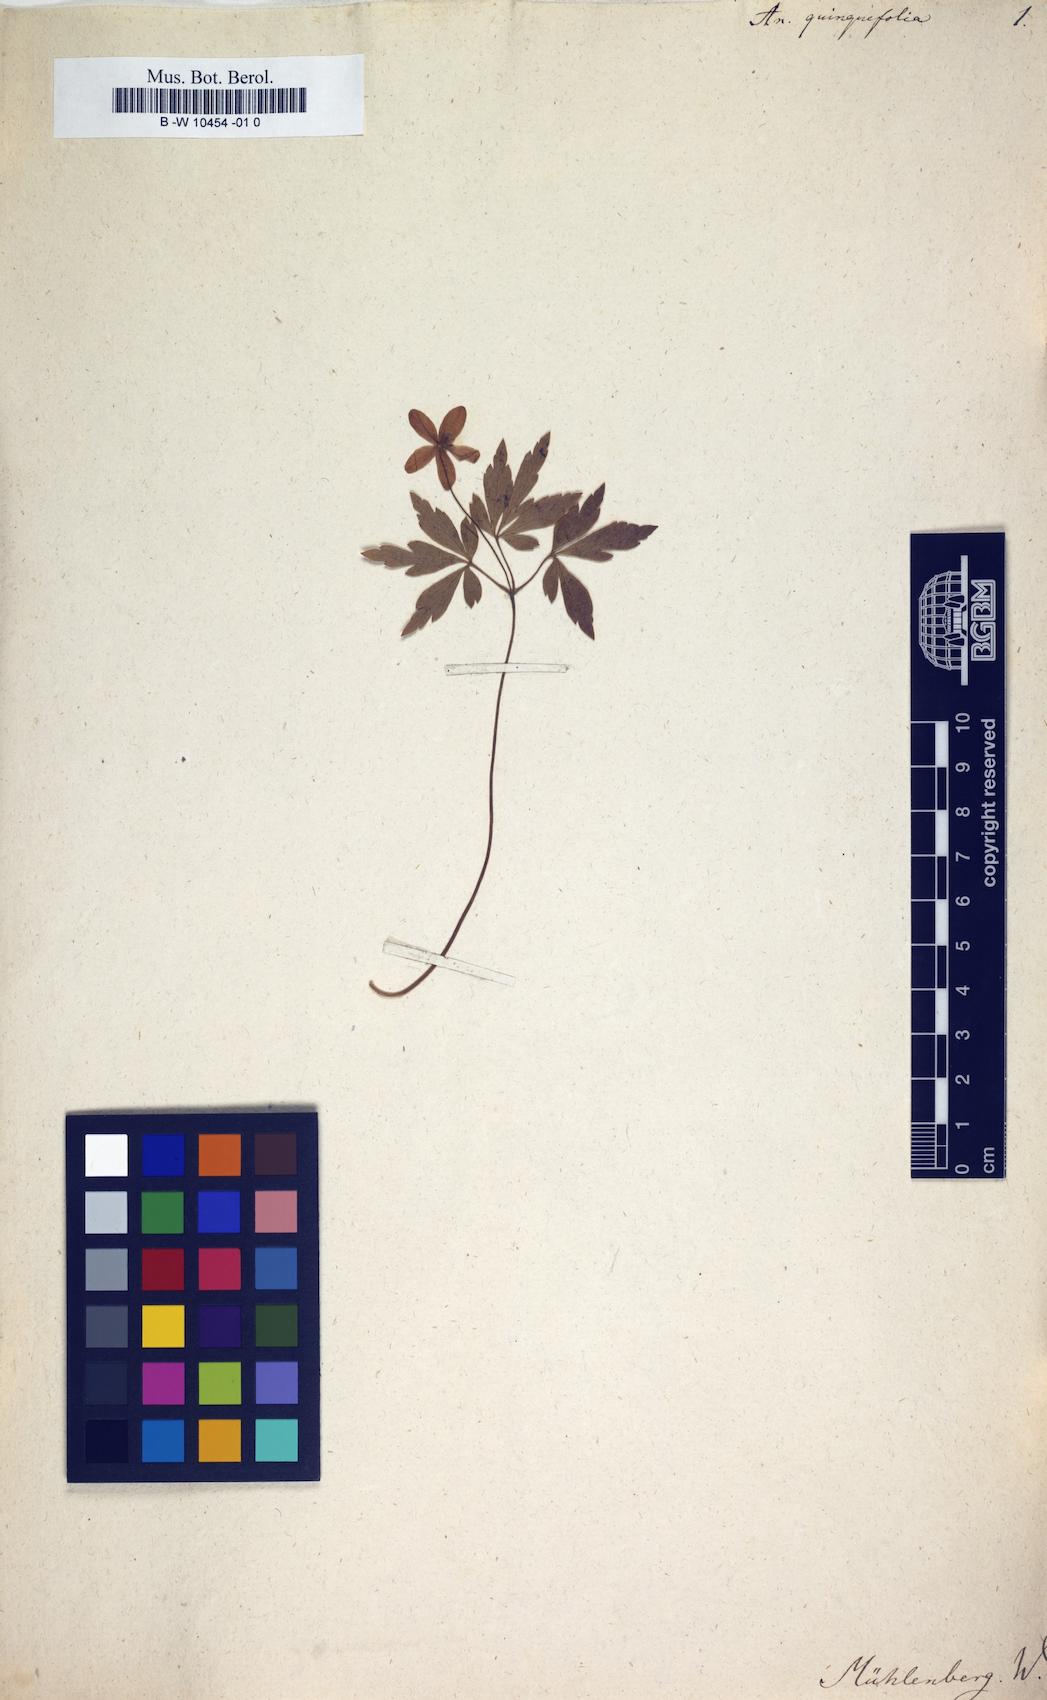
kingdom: Plantae
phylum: Tracheophyta
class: Magnoliopsida
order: Ranunculales
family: Ranunculaceae
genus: Anemone
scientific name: Anemone quinquefolia
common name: Wood anemone
